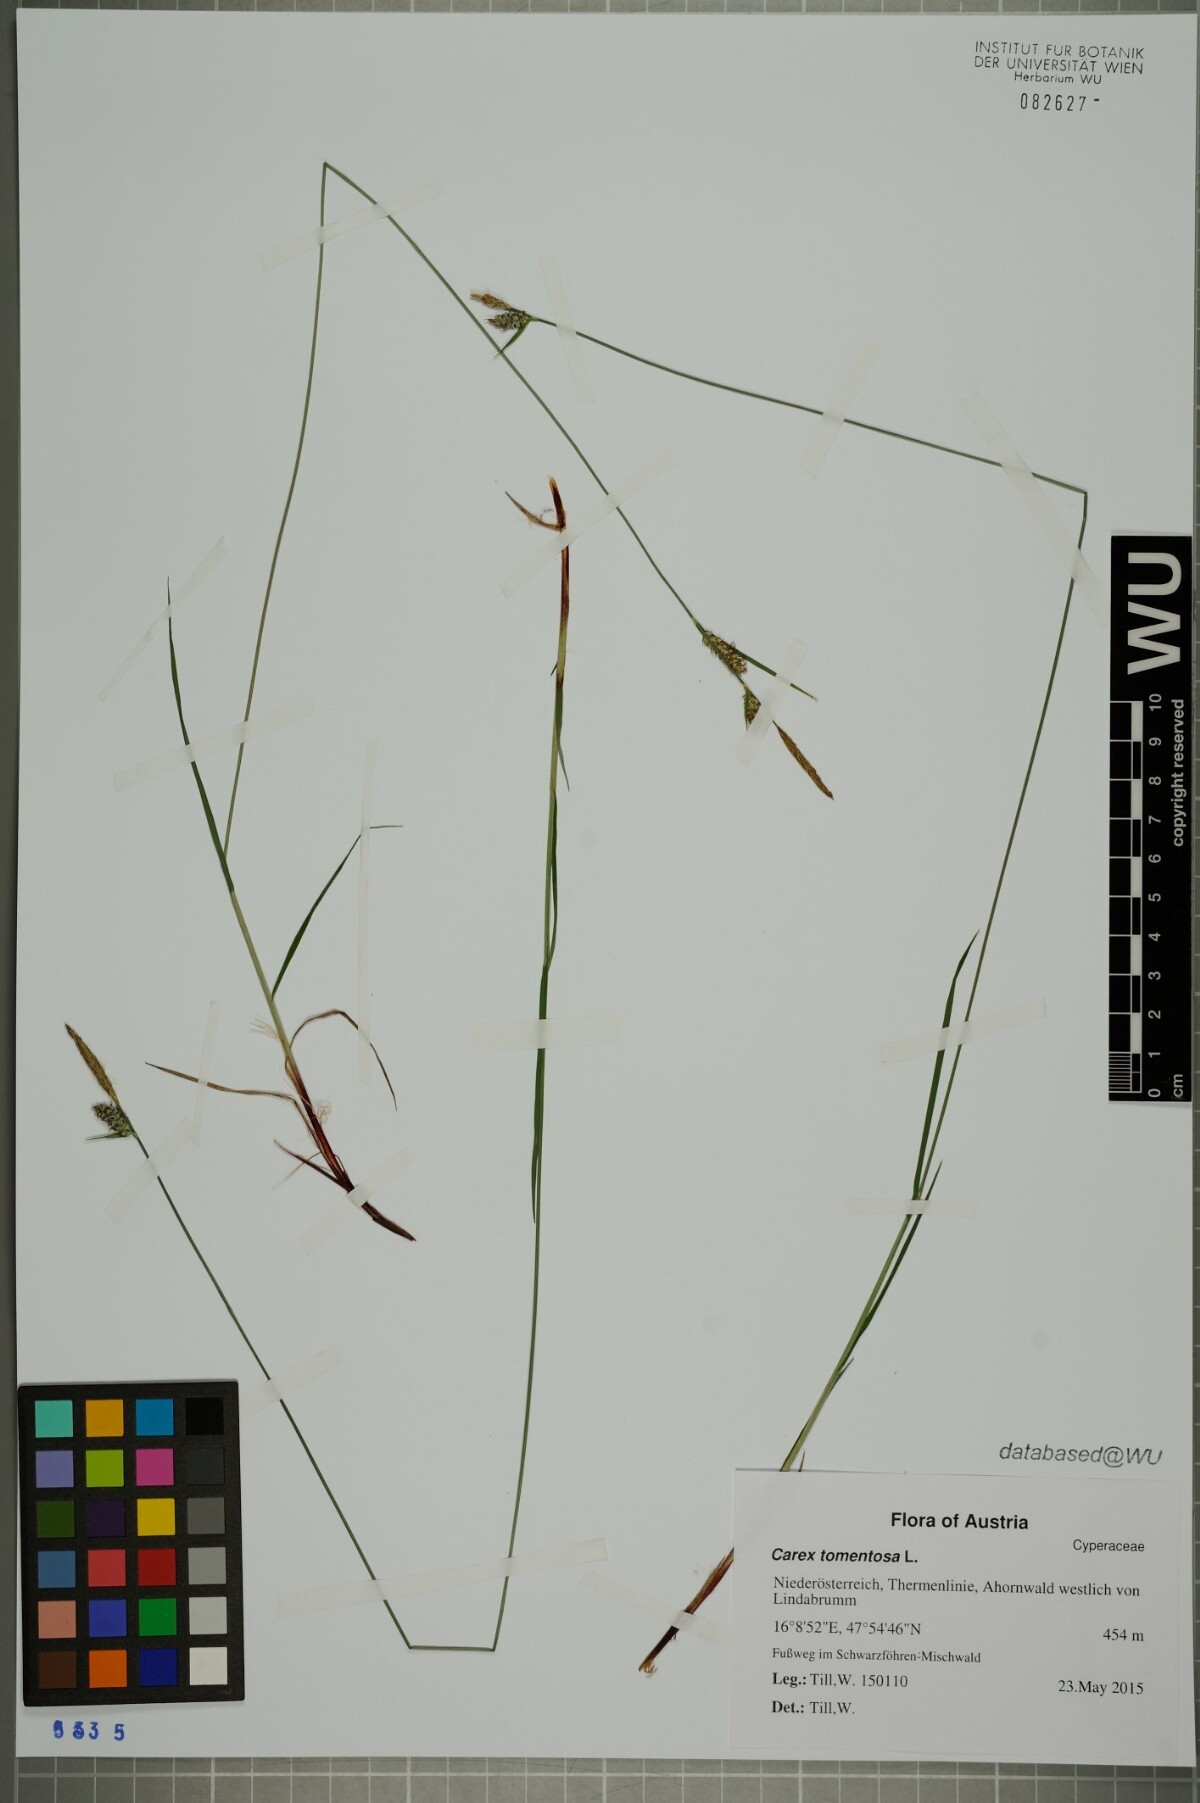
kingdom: Plantae
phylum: Tracheophyta
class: Liliopsida
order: Poales
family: Cyperaceae
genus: Carex
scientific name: Carex tomentosa
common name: Downy-fruited sedge
